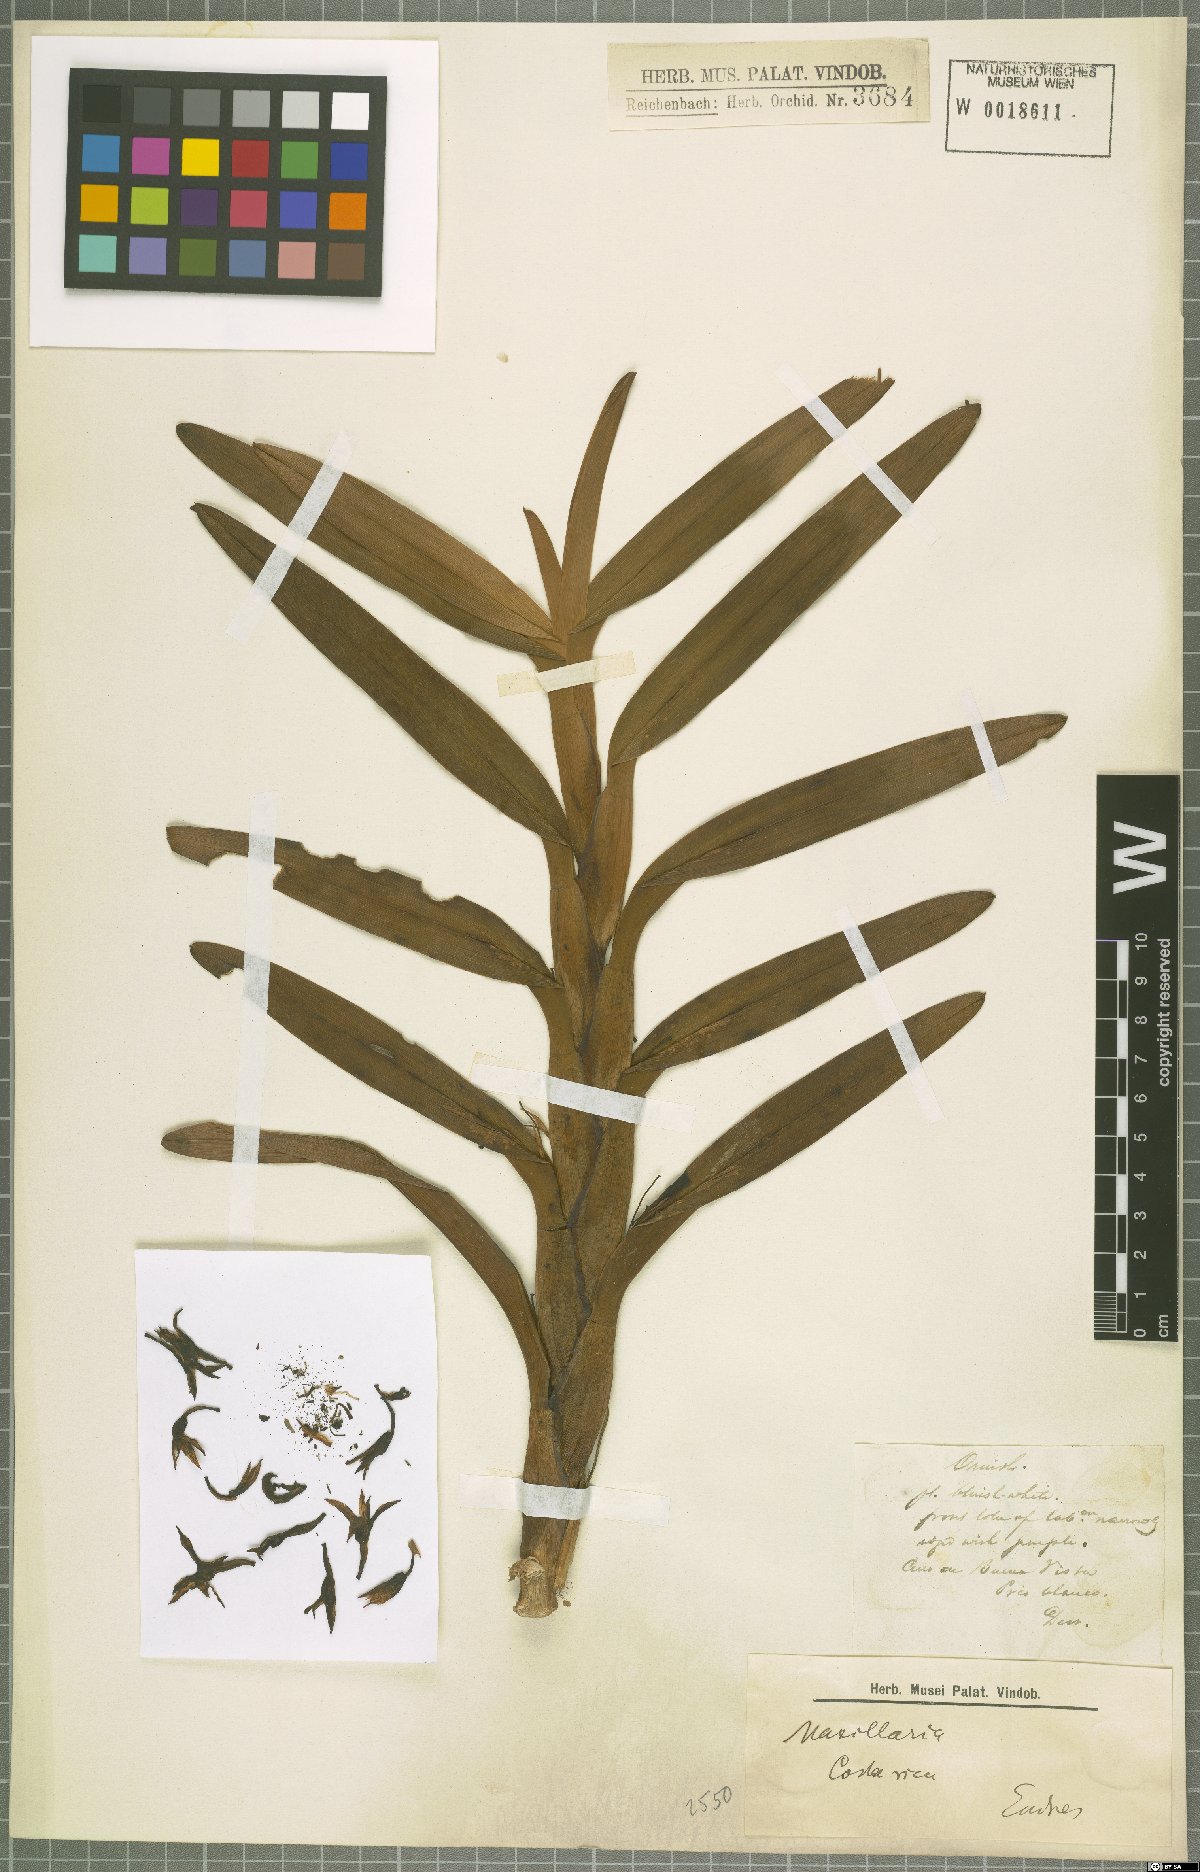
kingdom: Plantae
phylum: Tracheophyta
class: Liliopsida
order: Asparagales
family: Orchidaceae
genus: Maxillaria
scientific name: Maxillaria
